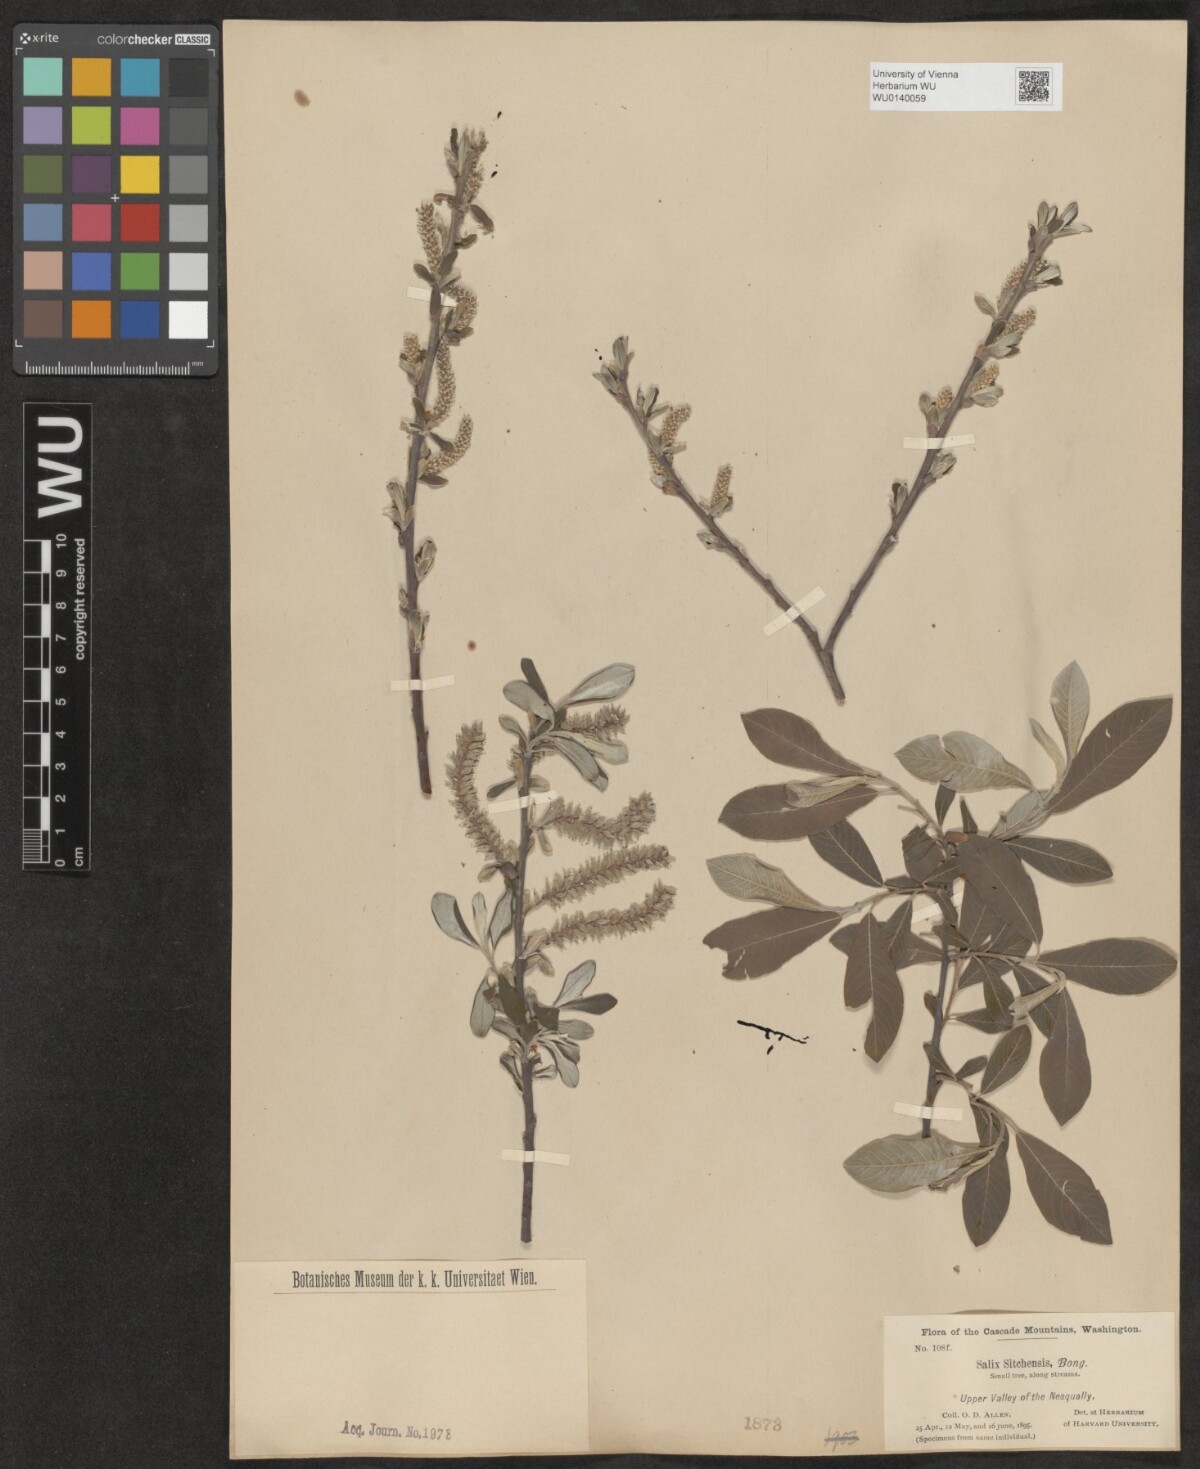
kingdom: Plantae
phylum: Tracheophyta
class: Magnoliopsida
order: Malpighiales
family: Salicaceae
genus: Salix
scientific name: Salix sitchensis
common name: Sitka willow
